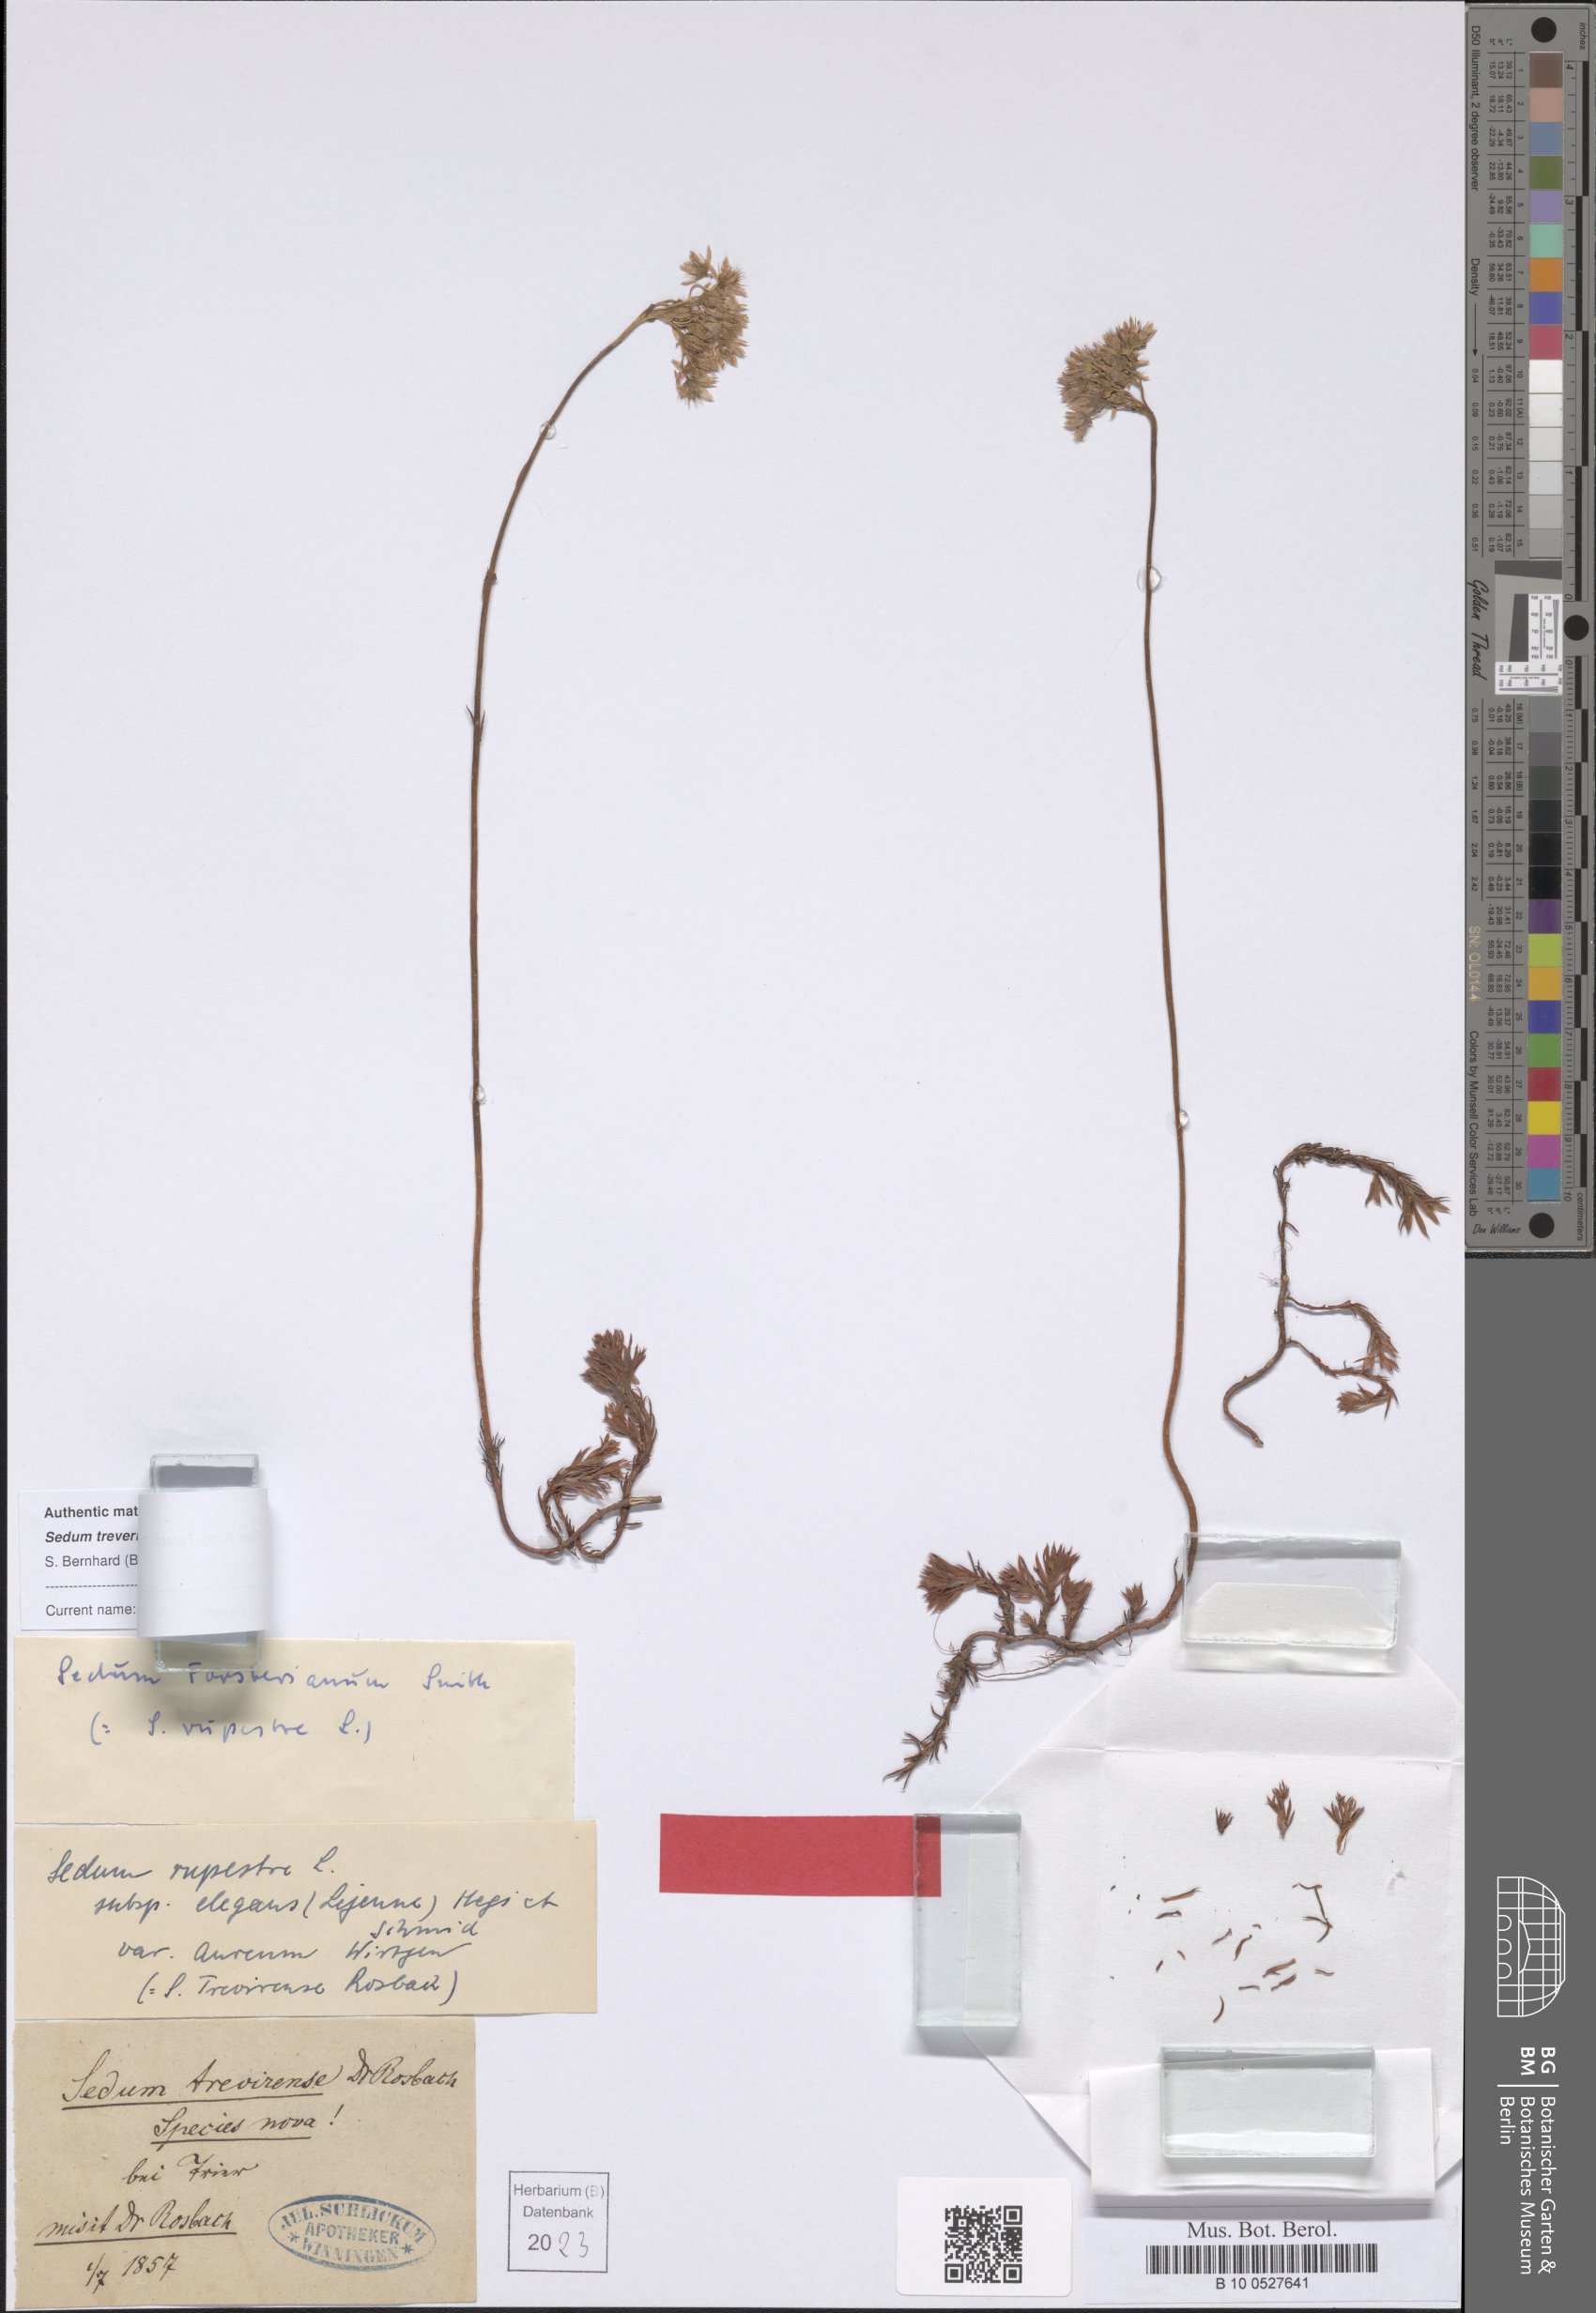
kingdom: Plantae
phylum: Tracheophyta
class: Magnoliopsida
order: Saxifragales
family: Crassulaceae
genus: Petrosedum
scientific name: Petrosedum pruinatum
